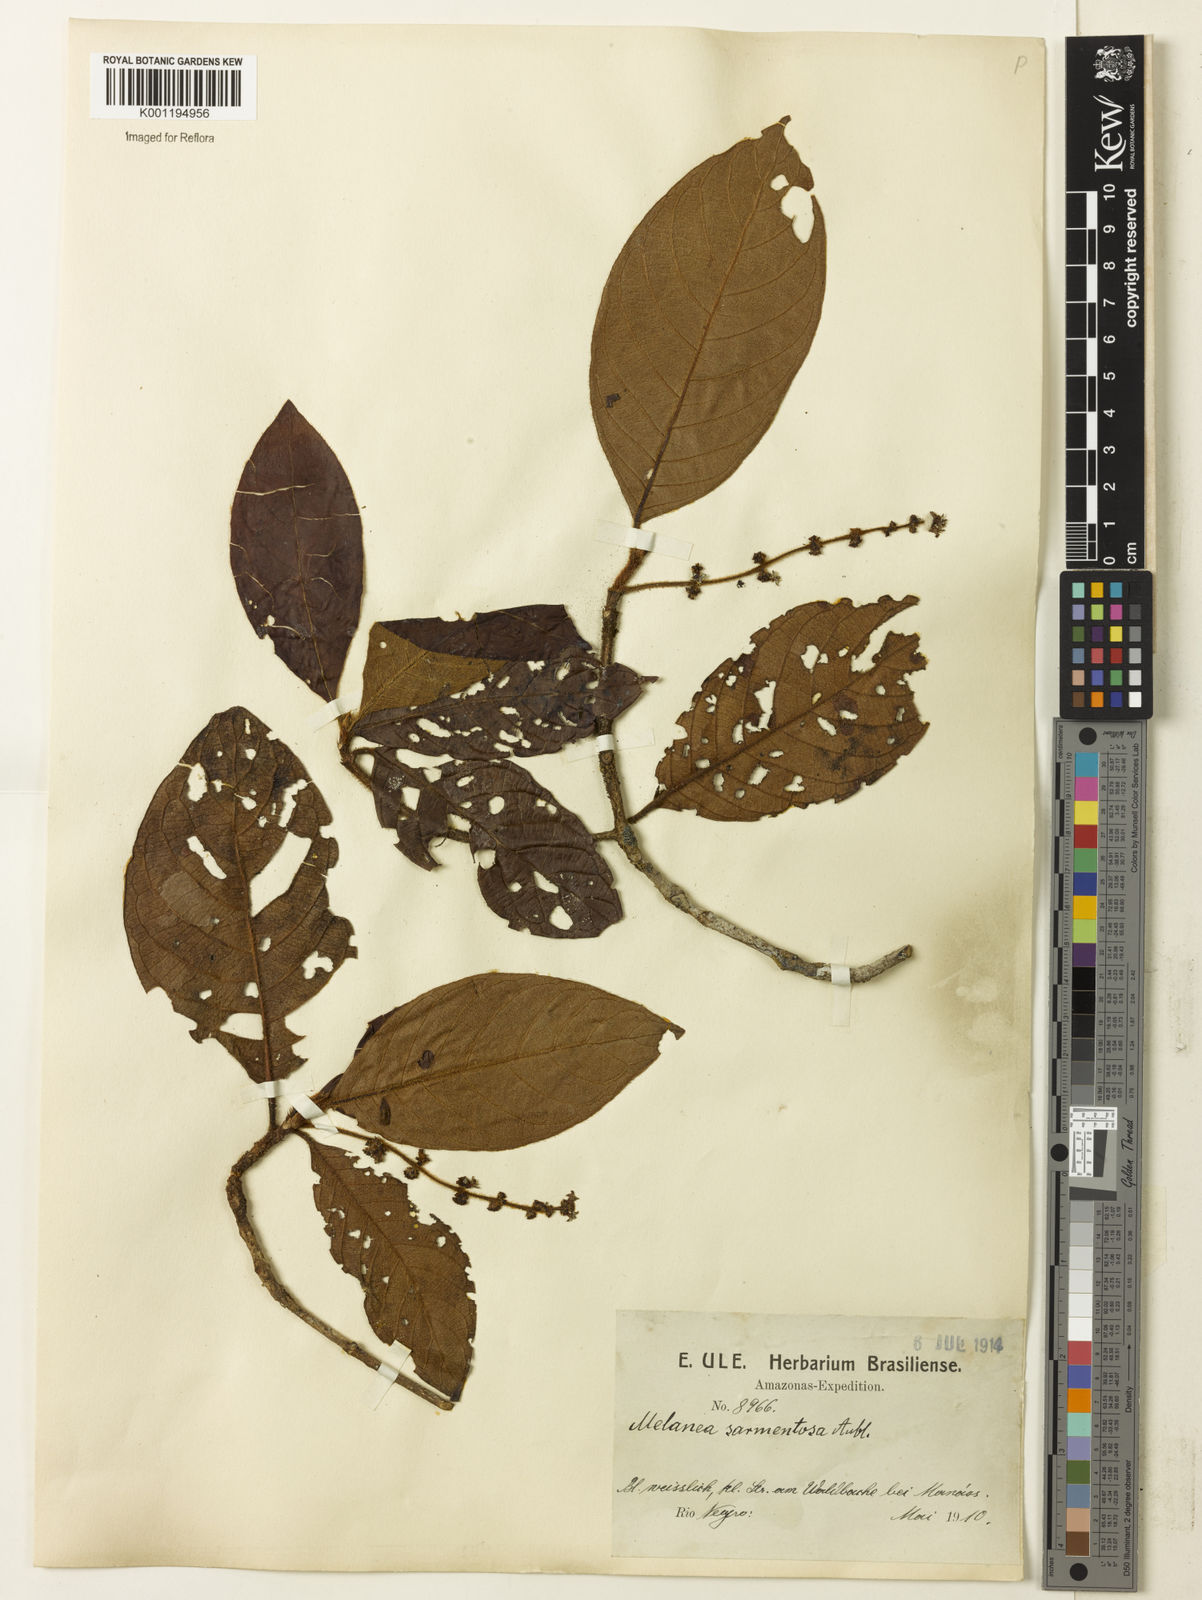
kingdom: Plantae
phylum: Tracheophyta
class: Magnoliopsida
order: Gentianales
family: Rubiaceae
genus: Malanea
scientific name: Malanea sarmentosa
